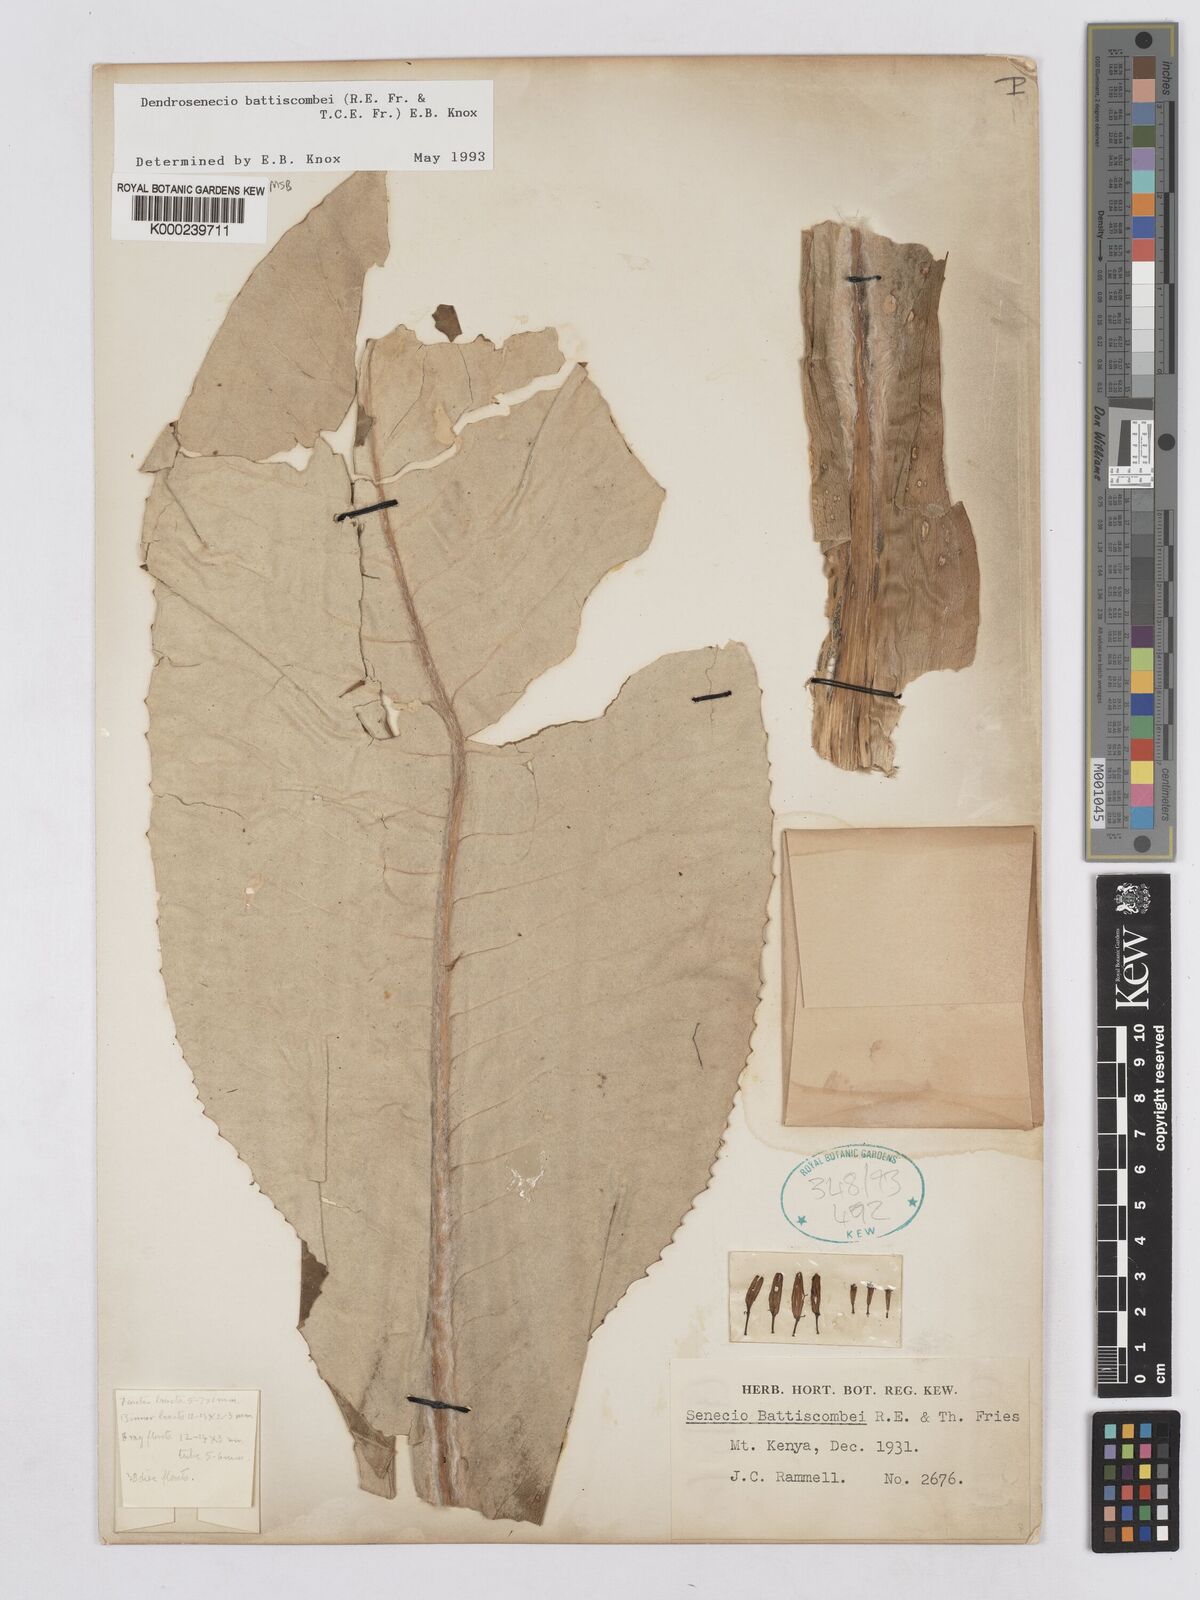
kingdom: Plantae
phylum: Tracheophyta
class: Magnoliopsida
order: Asterales
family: Asteraceae
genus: Dendrosenecio
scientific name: Dendrosenecio battiscombei
